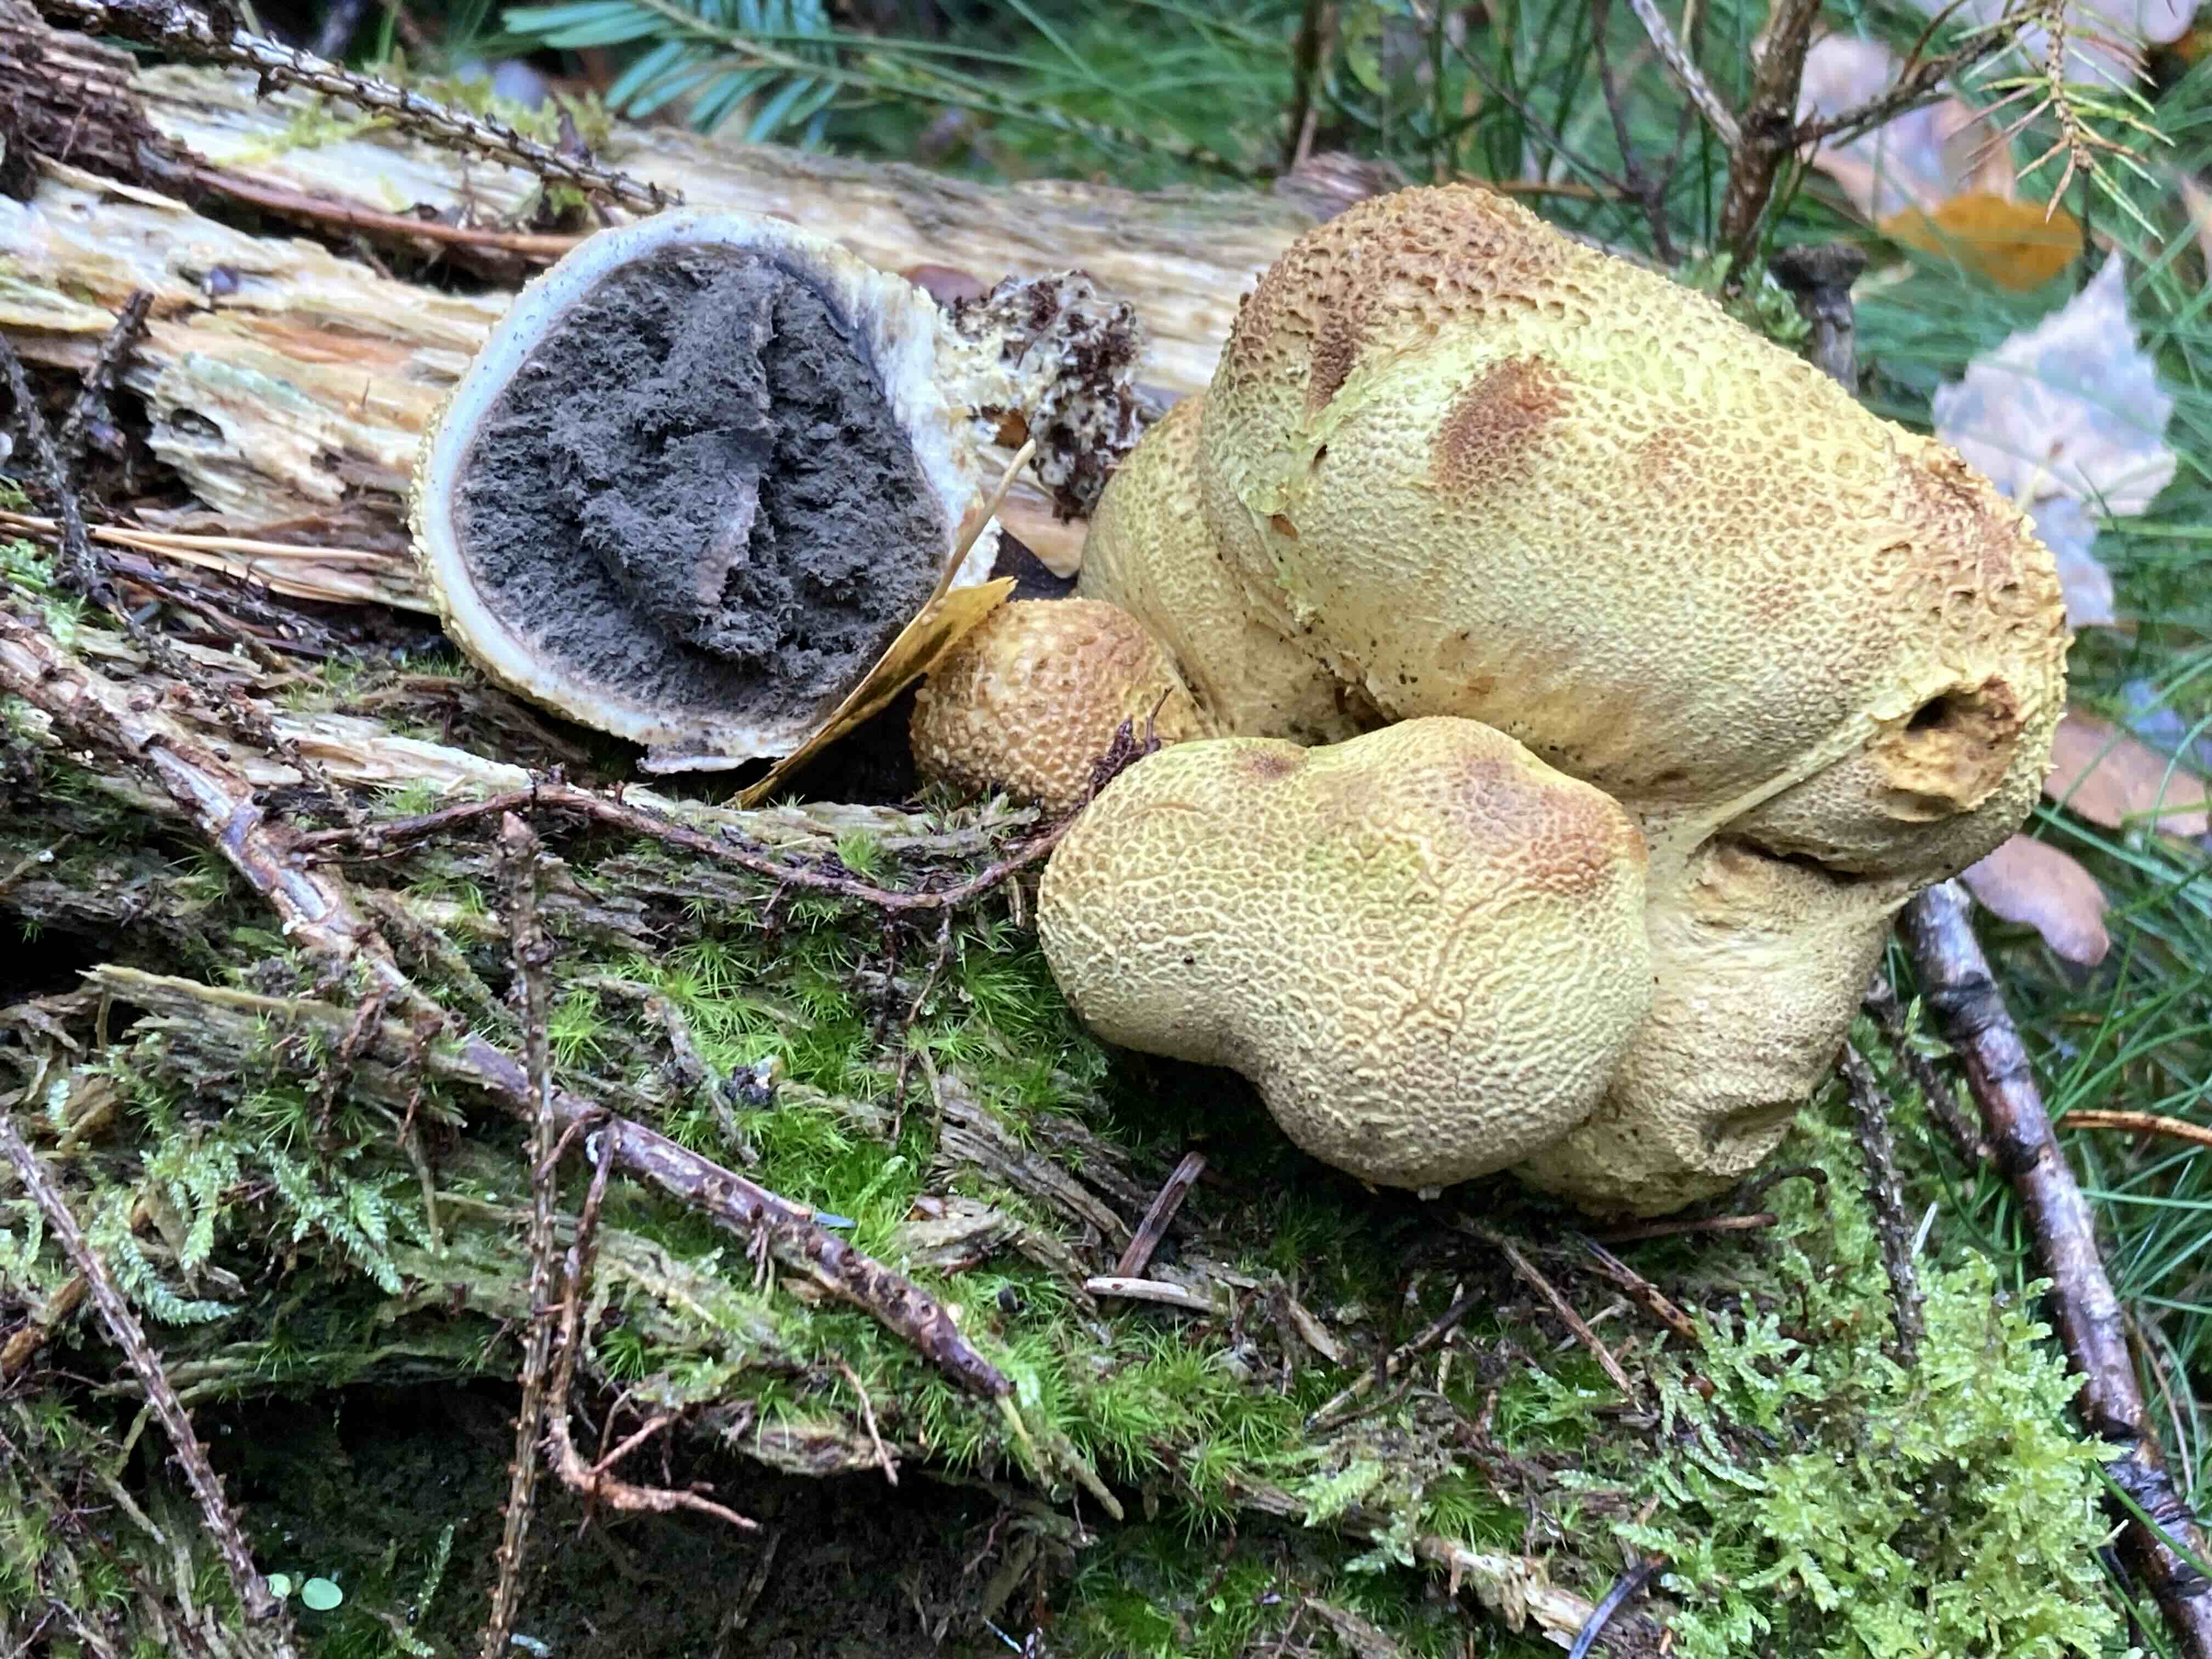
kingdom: Fungi
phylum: Basidiomycota
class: Agaricomycetes
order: Boletales
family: Sclerodermataceae
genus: Scleroderma
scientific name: Scleroderma citrinum
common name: almindelig bruskbold
